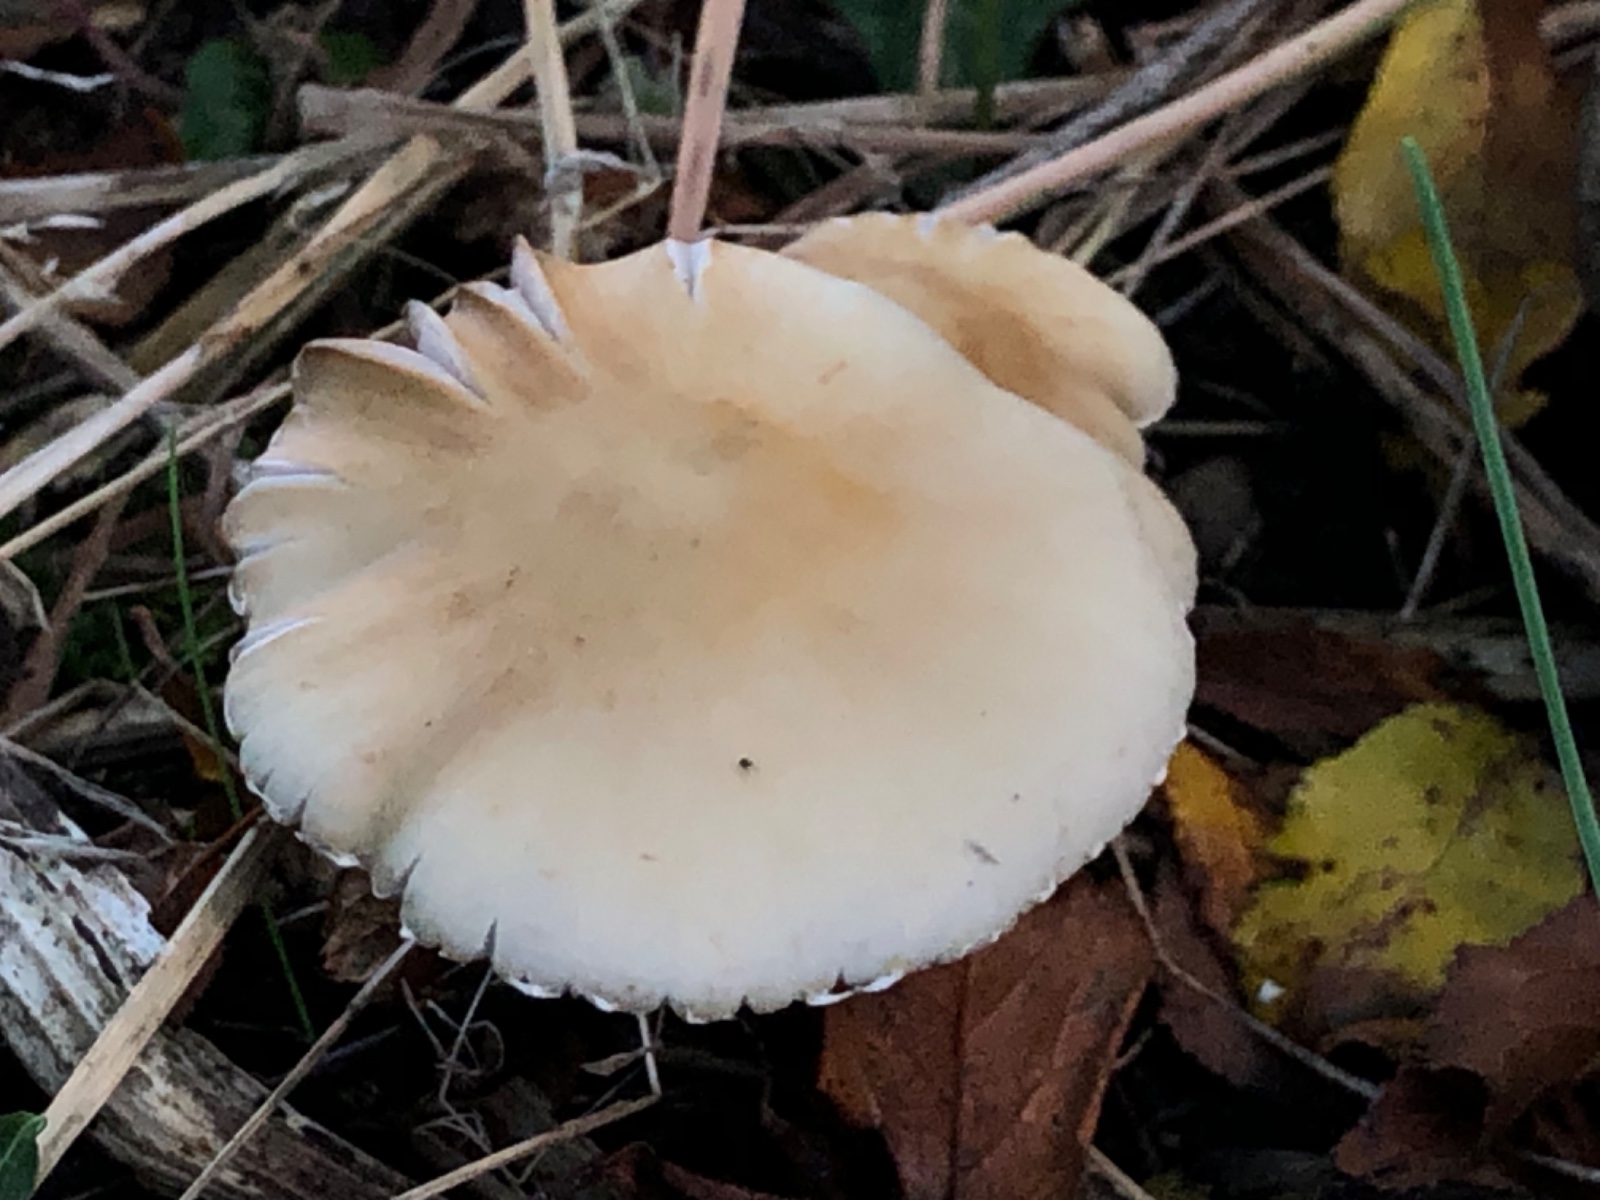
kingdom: Fungi
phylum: Basidiomycota
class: Agaricomycetes
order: Agaricales
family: Psathyrellaceae
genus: Candolleomyces
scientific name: Candolleomyces candolleanus
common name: Candolles mørkhat
